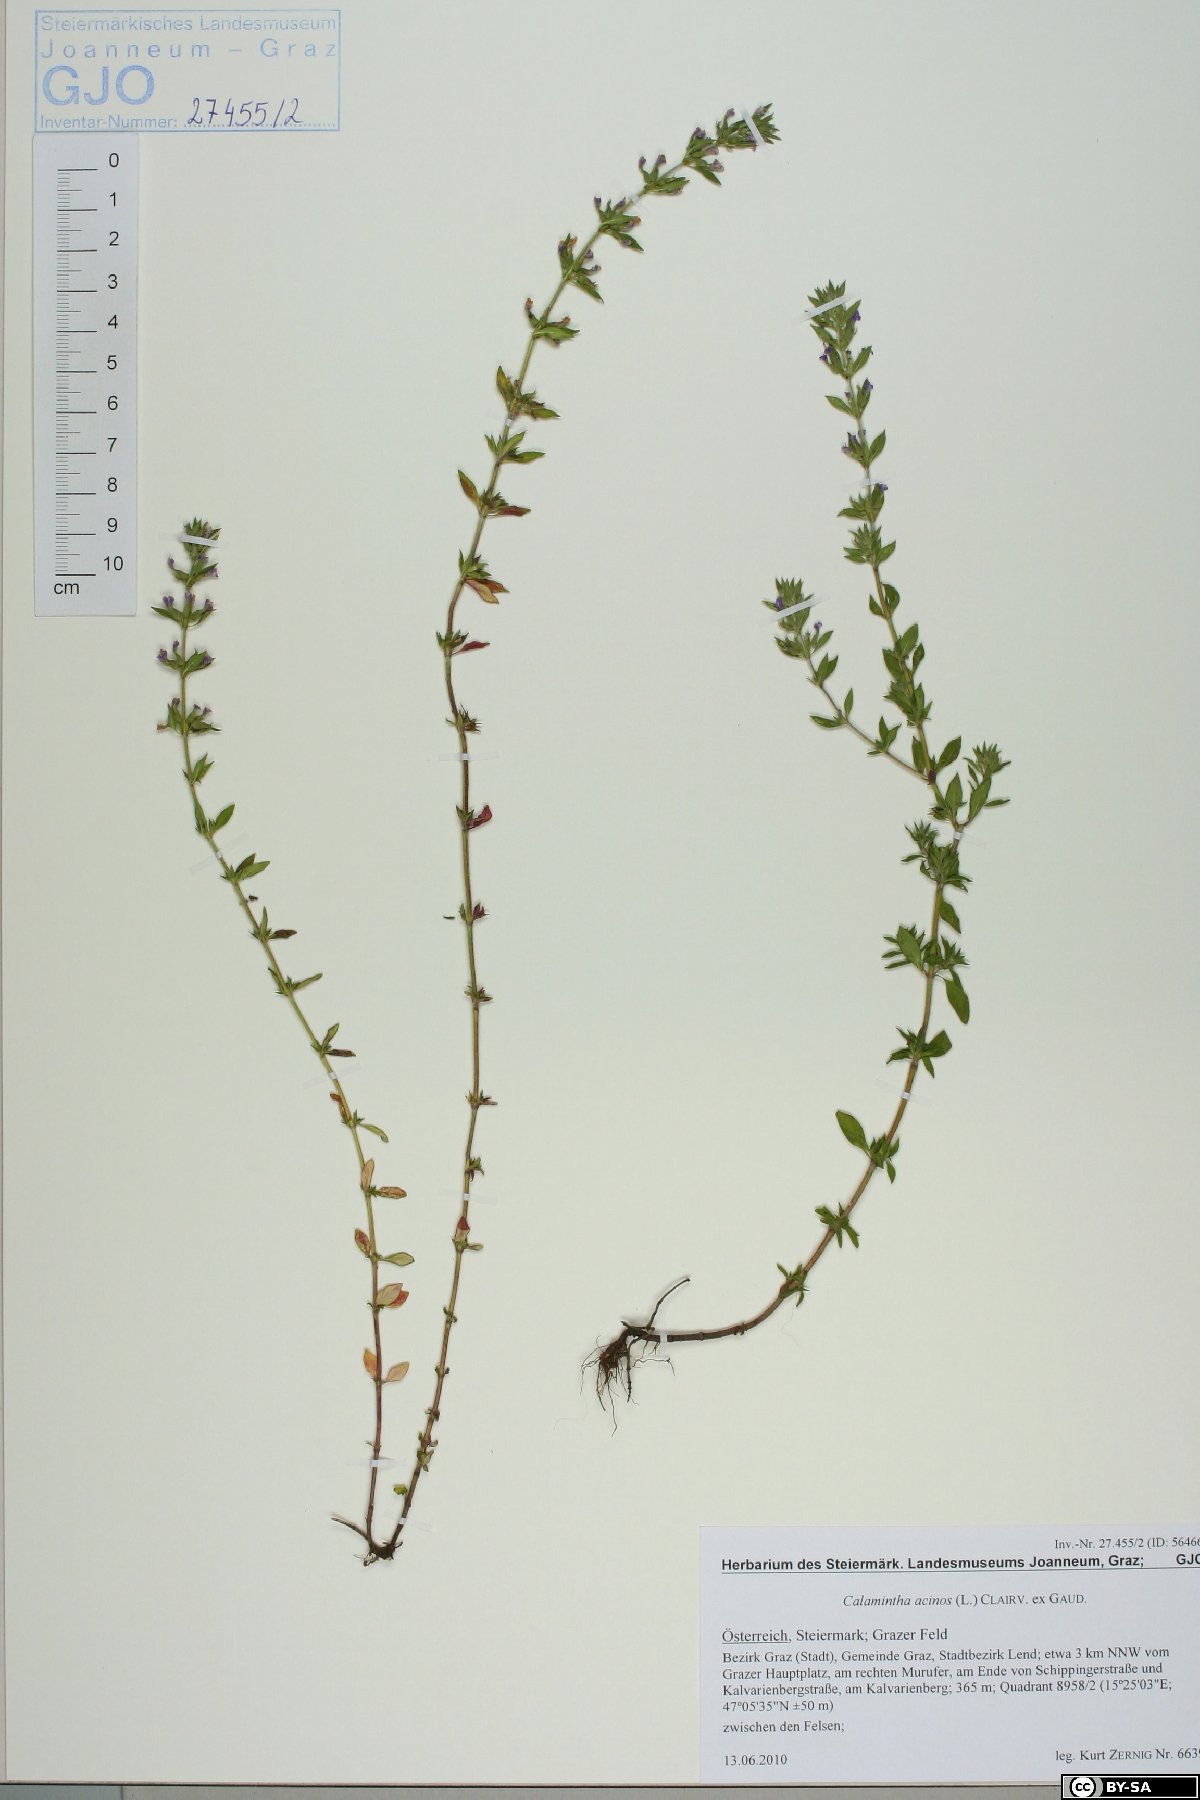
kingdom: Plantae
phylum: Tracheophyta
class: Magnoliopsida
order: Lamiales
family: Lamiaceae
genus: Clinopodium
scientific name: Clinopodium acinos
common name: Basil thyme
